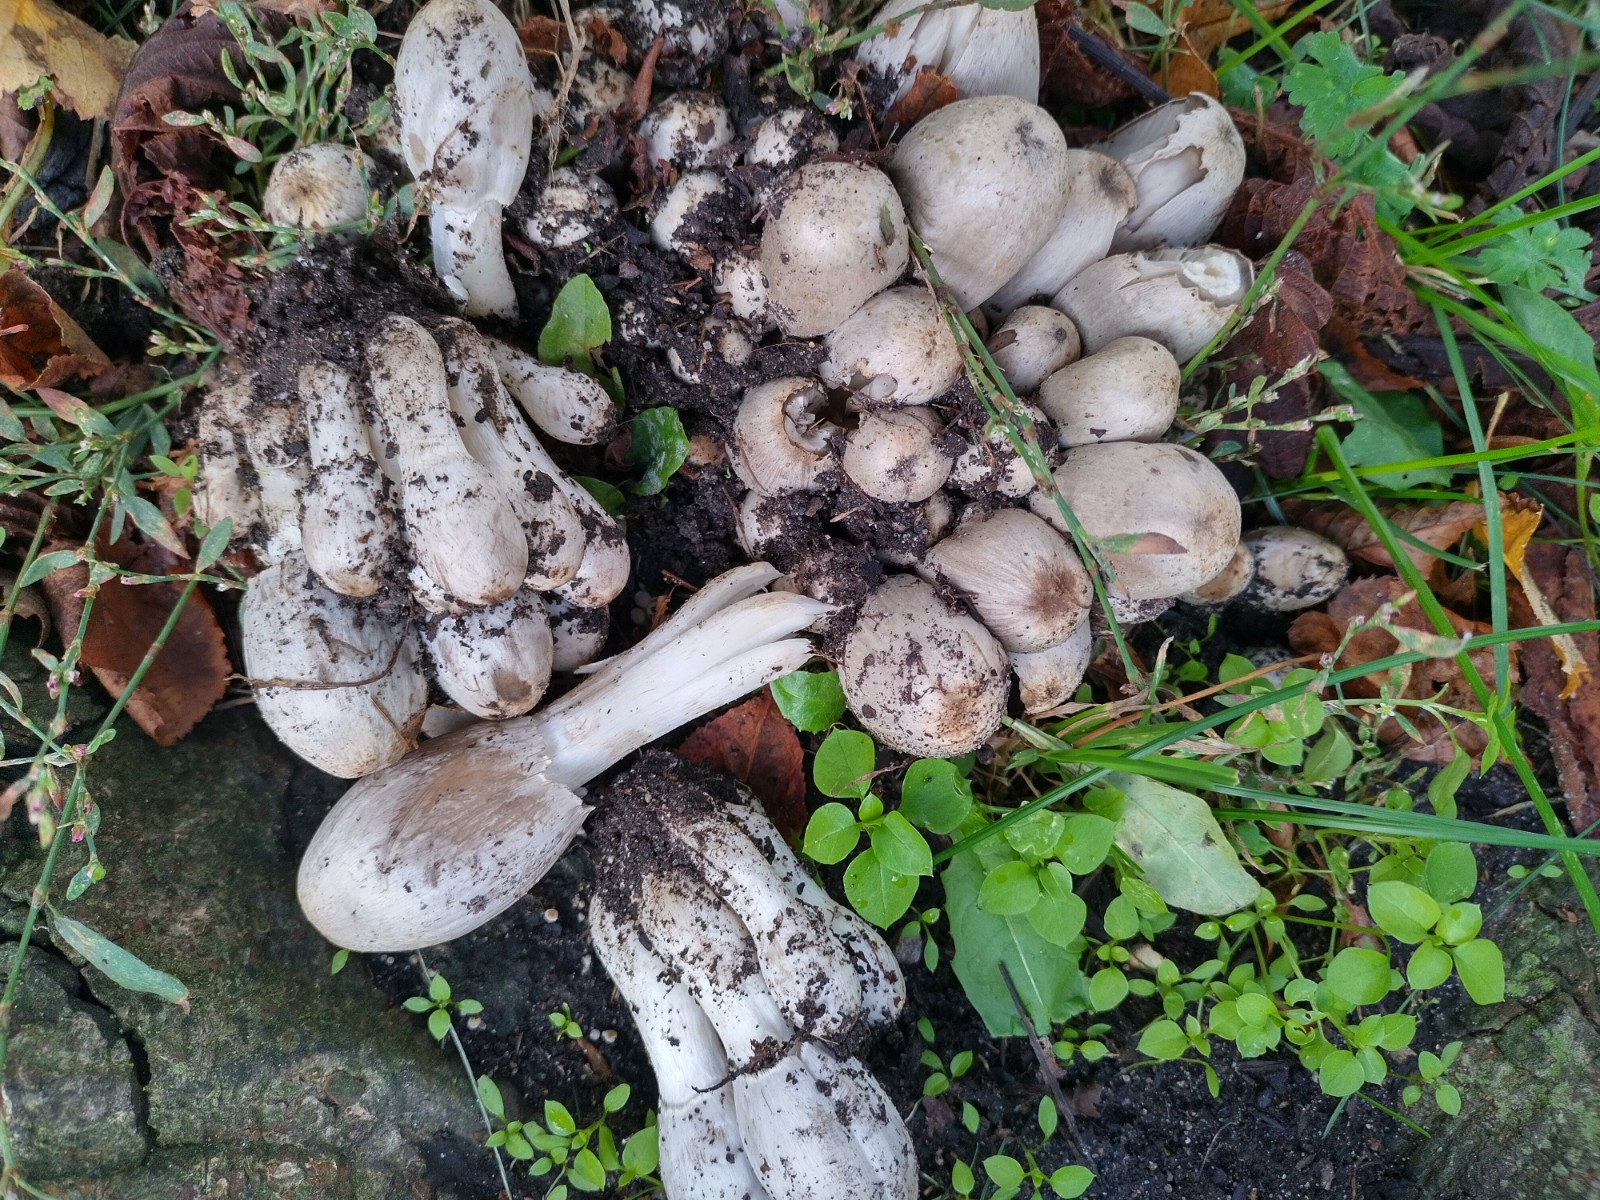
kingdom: Fungi
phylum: Basidiomycota
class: Agaricomycetes
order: Agaricales
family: Psathyrellaceae
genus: Coprinopsis
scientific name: Coprinopsis atramentaria
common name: almindelig blækhat
